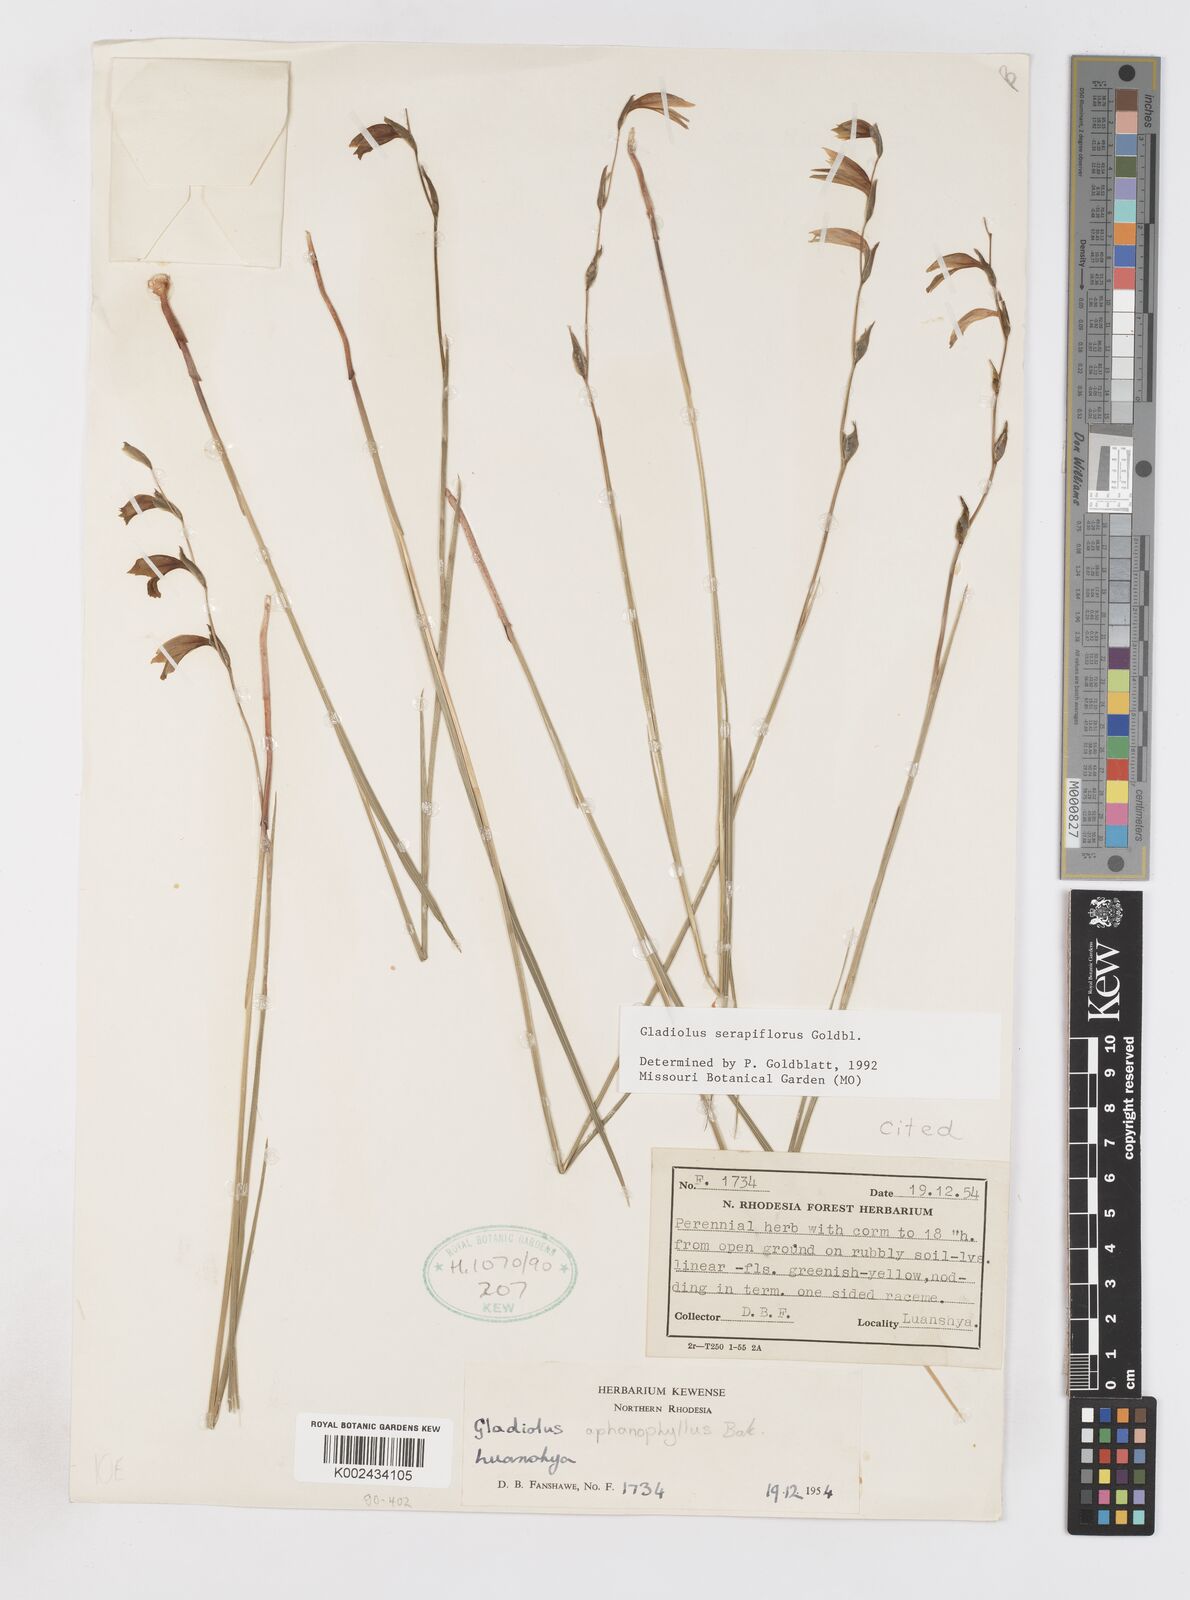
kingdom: Plantae
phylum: Tracheophyta
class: Liliopsida
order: Asparagales
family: Iridaceae
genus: Gladiolus
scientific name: Gladiolus serapiiflorus
